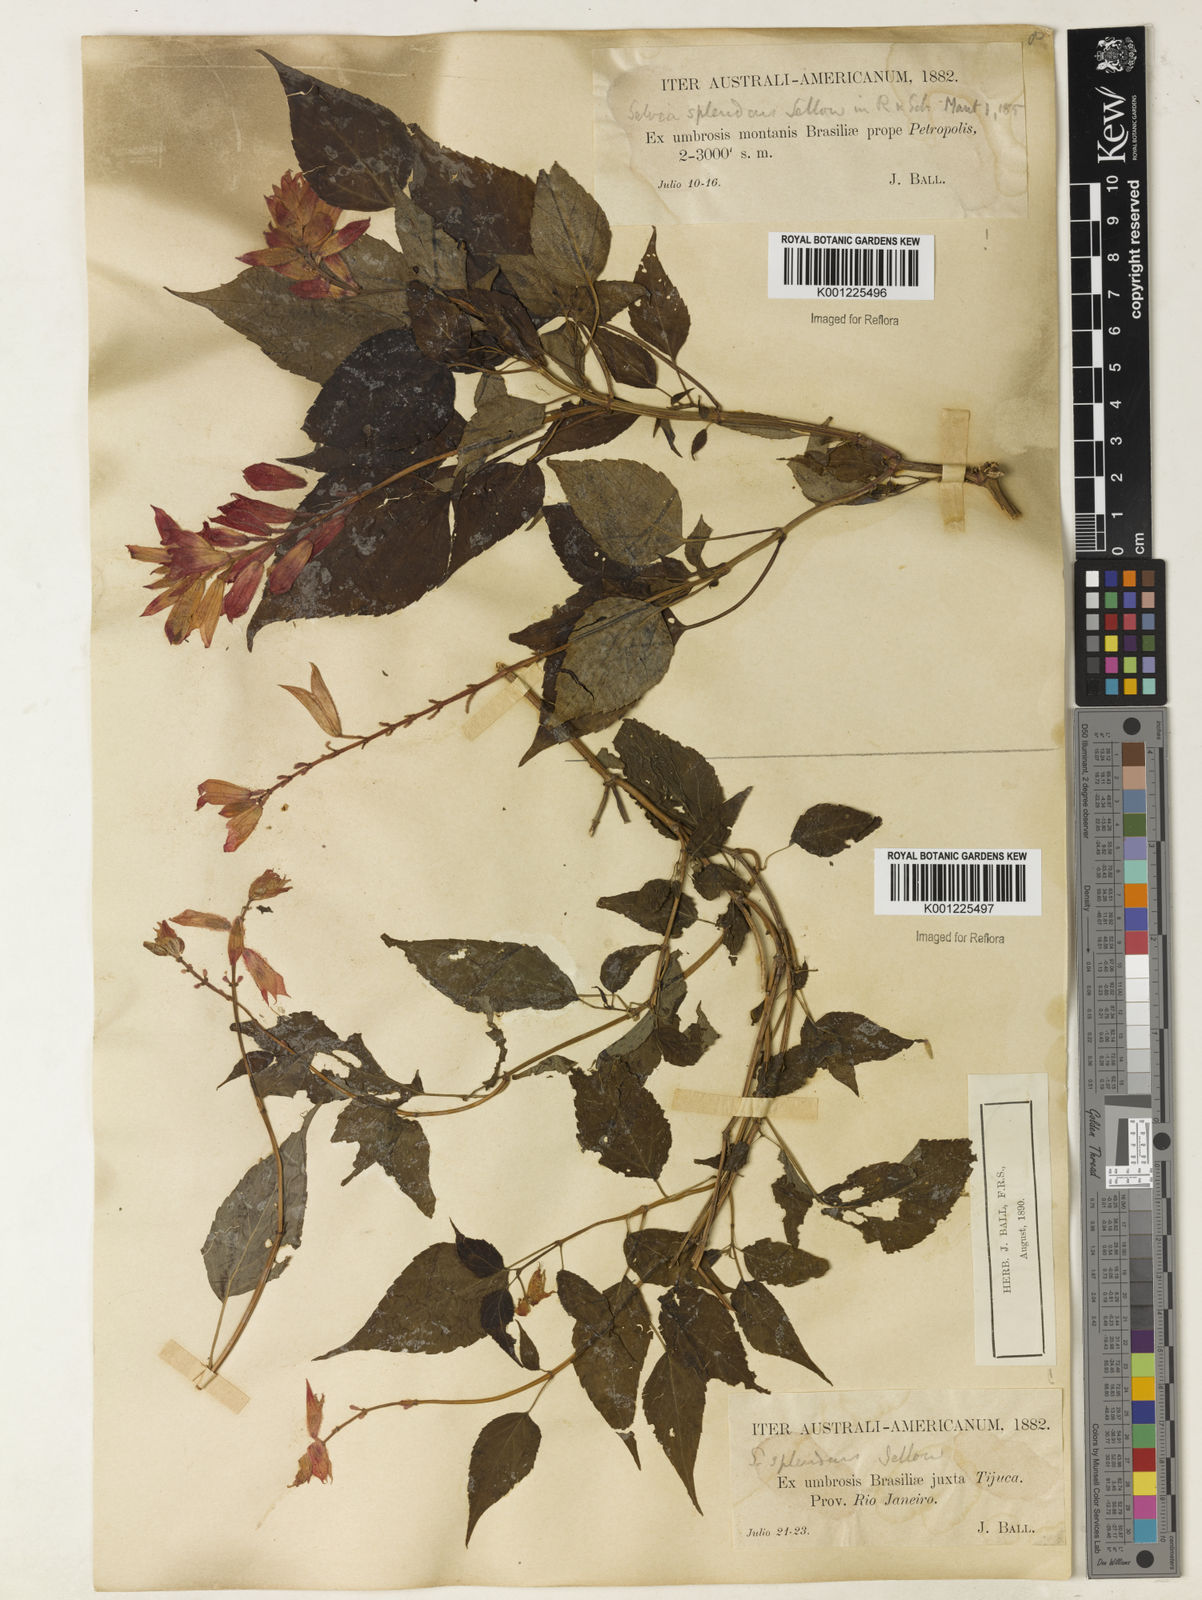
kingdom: Plantae
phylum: Tracheophyta
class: Magnoliopsida
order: Lamiales
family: Lamiaceae
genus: Salvia
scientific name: Salvia
